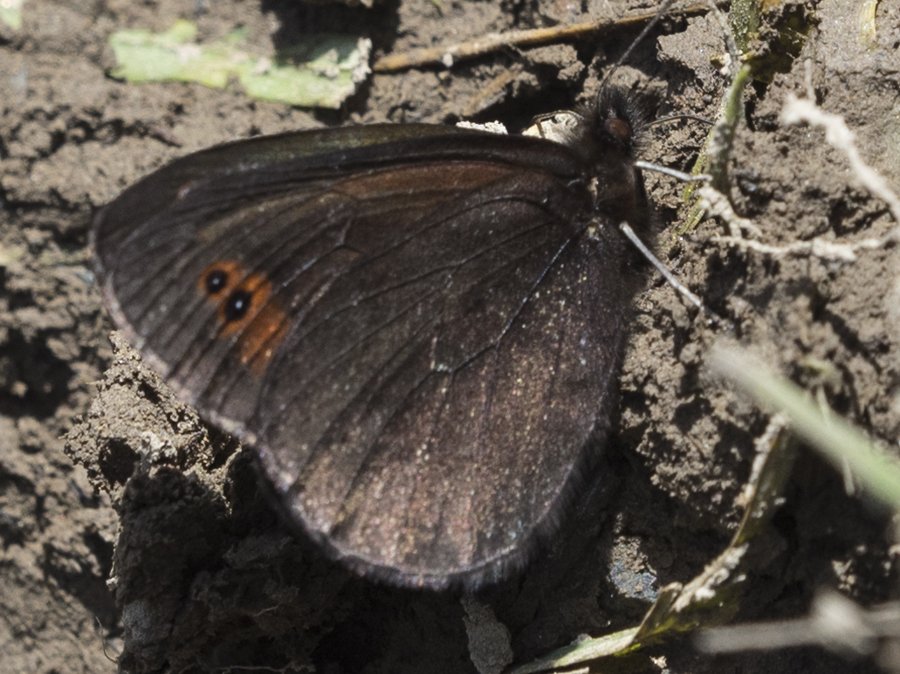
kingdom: Animalia
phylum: Arthropoda
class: Insecta
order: Lepidoptera
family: Nymphalidae
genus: Erebia
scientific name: Erebia epipsodea
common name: Common Alpine
